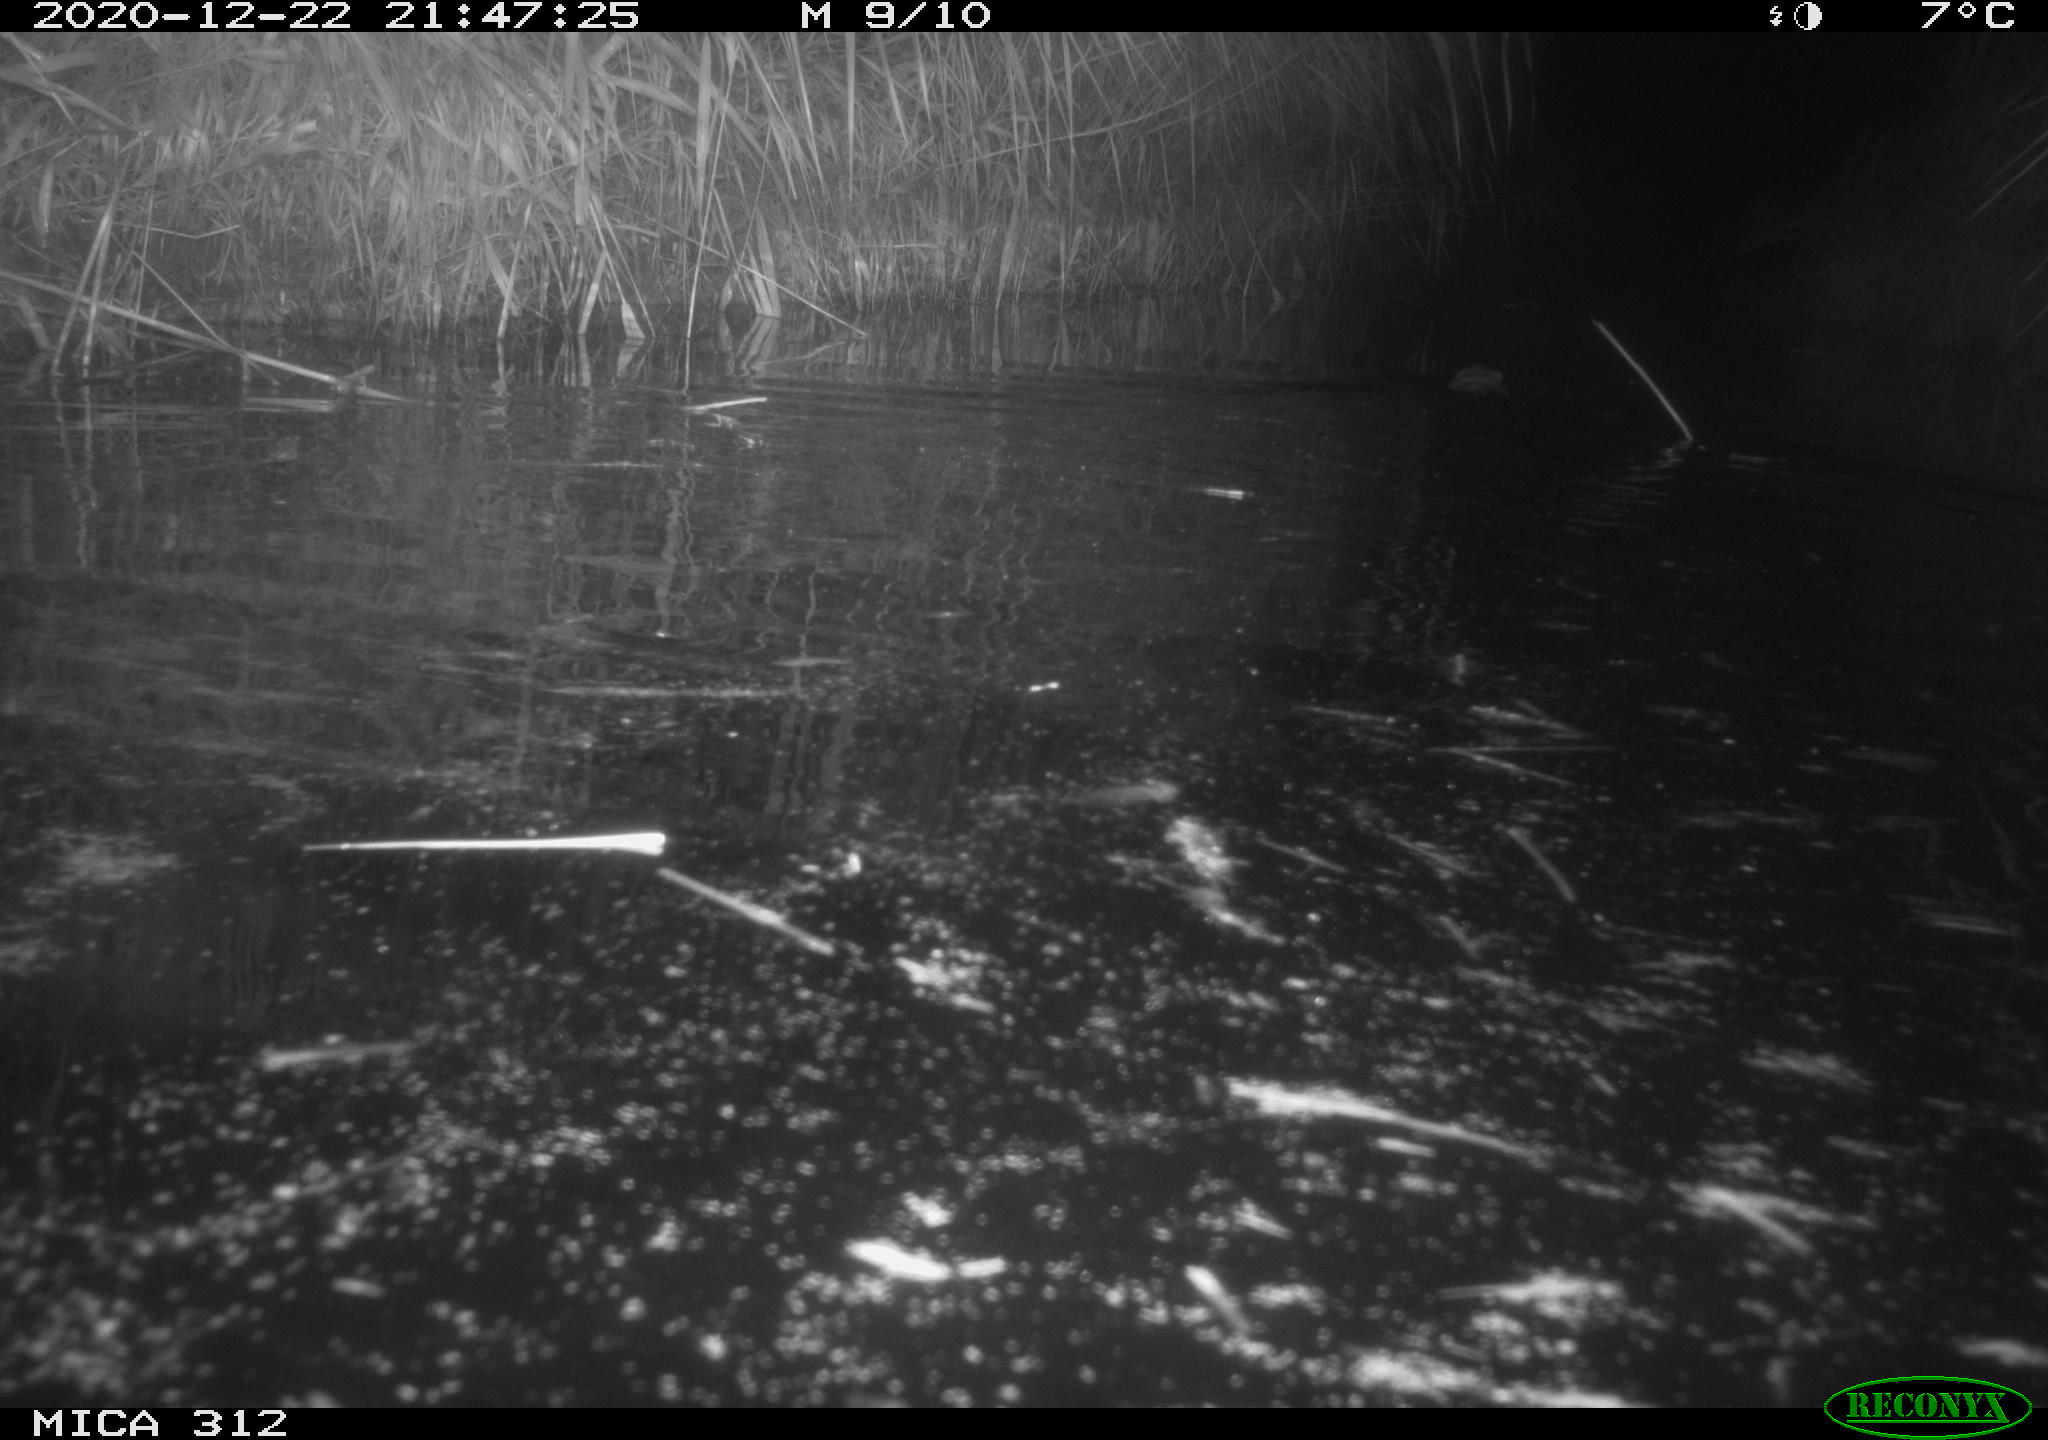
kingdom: Animalia
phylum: Chordata
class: Mammalia
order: Rodentia
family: Cricetidae
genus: Ondatra
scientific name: Ondatra zibethicus
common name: Muskrat
